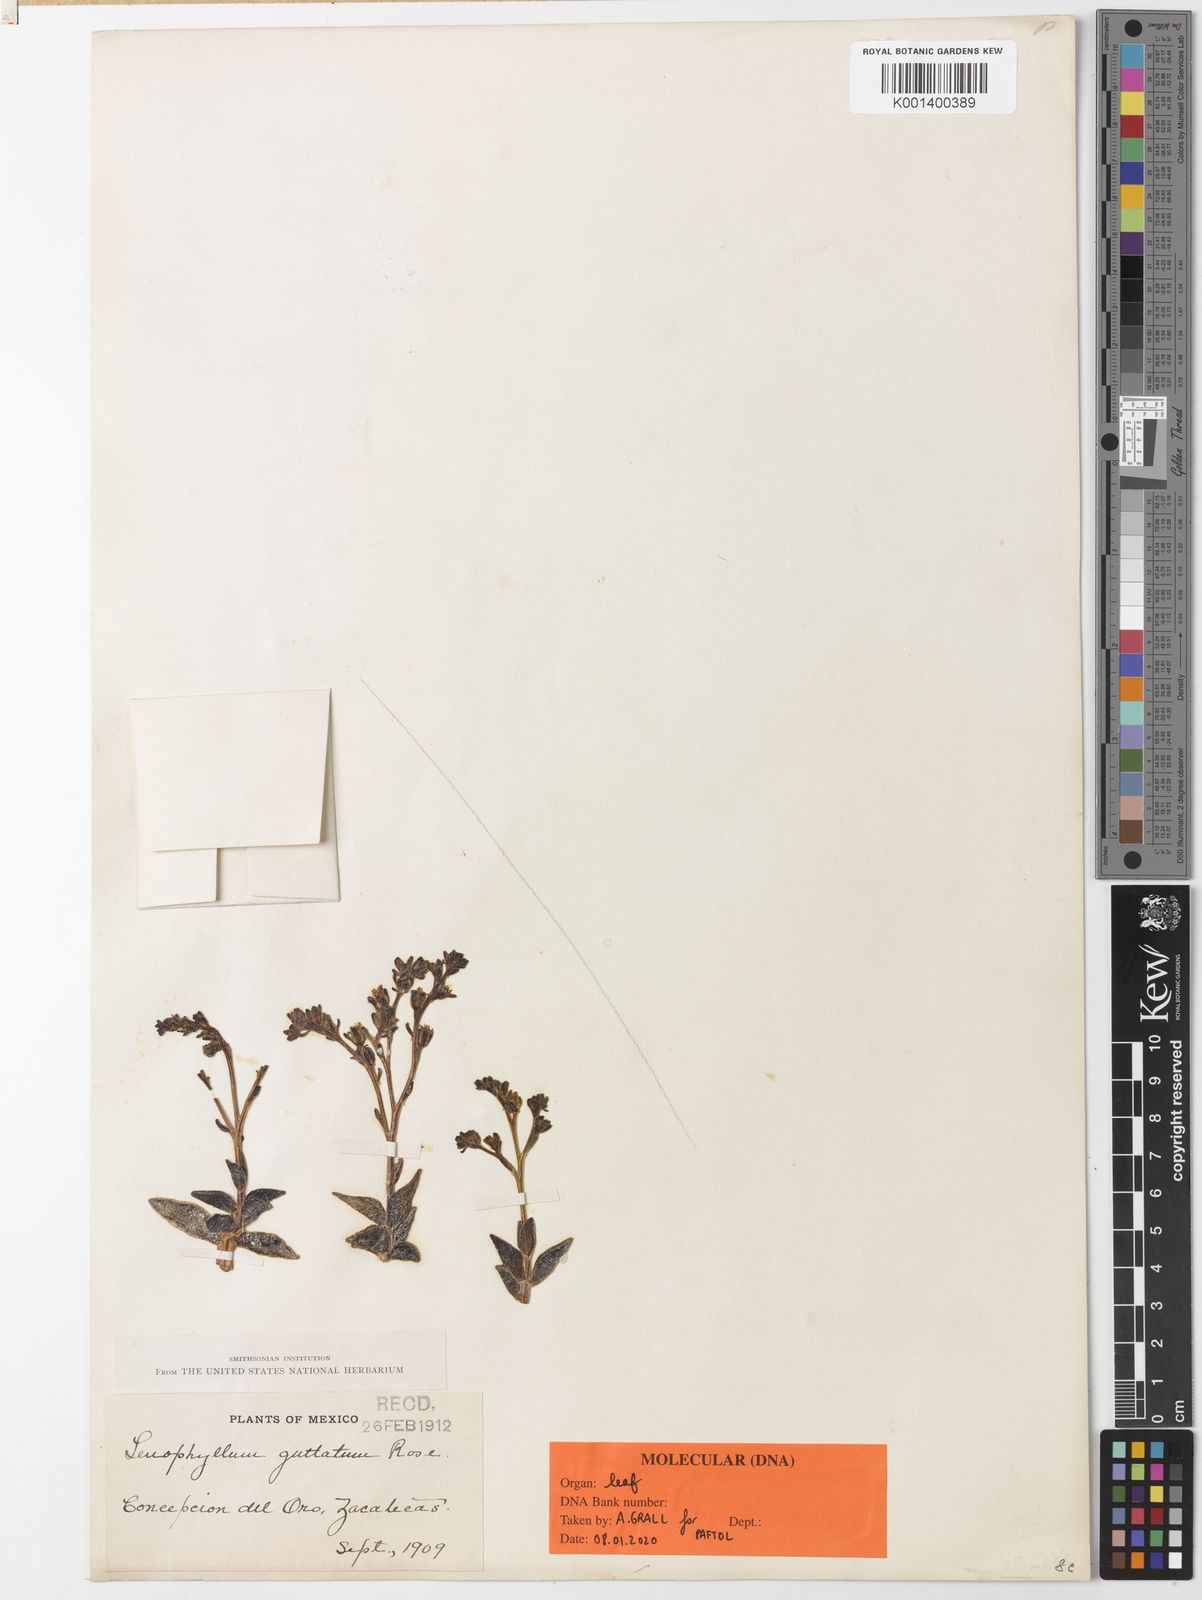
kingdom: Plantae
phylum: Tracheophyta
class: Magnoliopsida
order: Saxifragales
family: Crassulaceae
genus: Lenophyllum
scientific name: Lenophyllum guttatum
